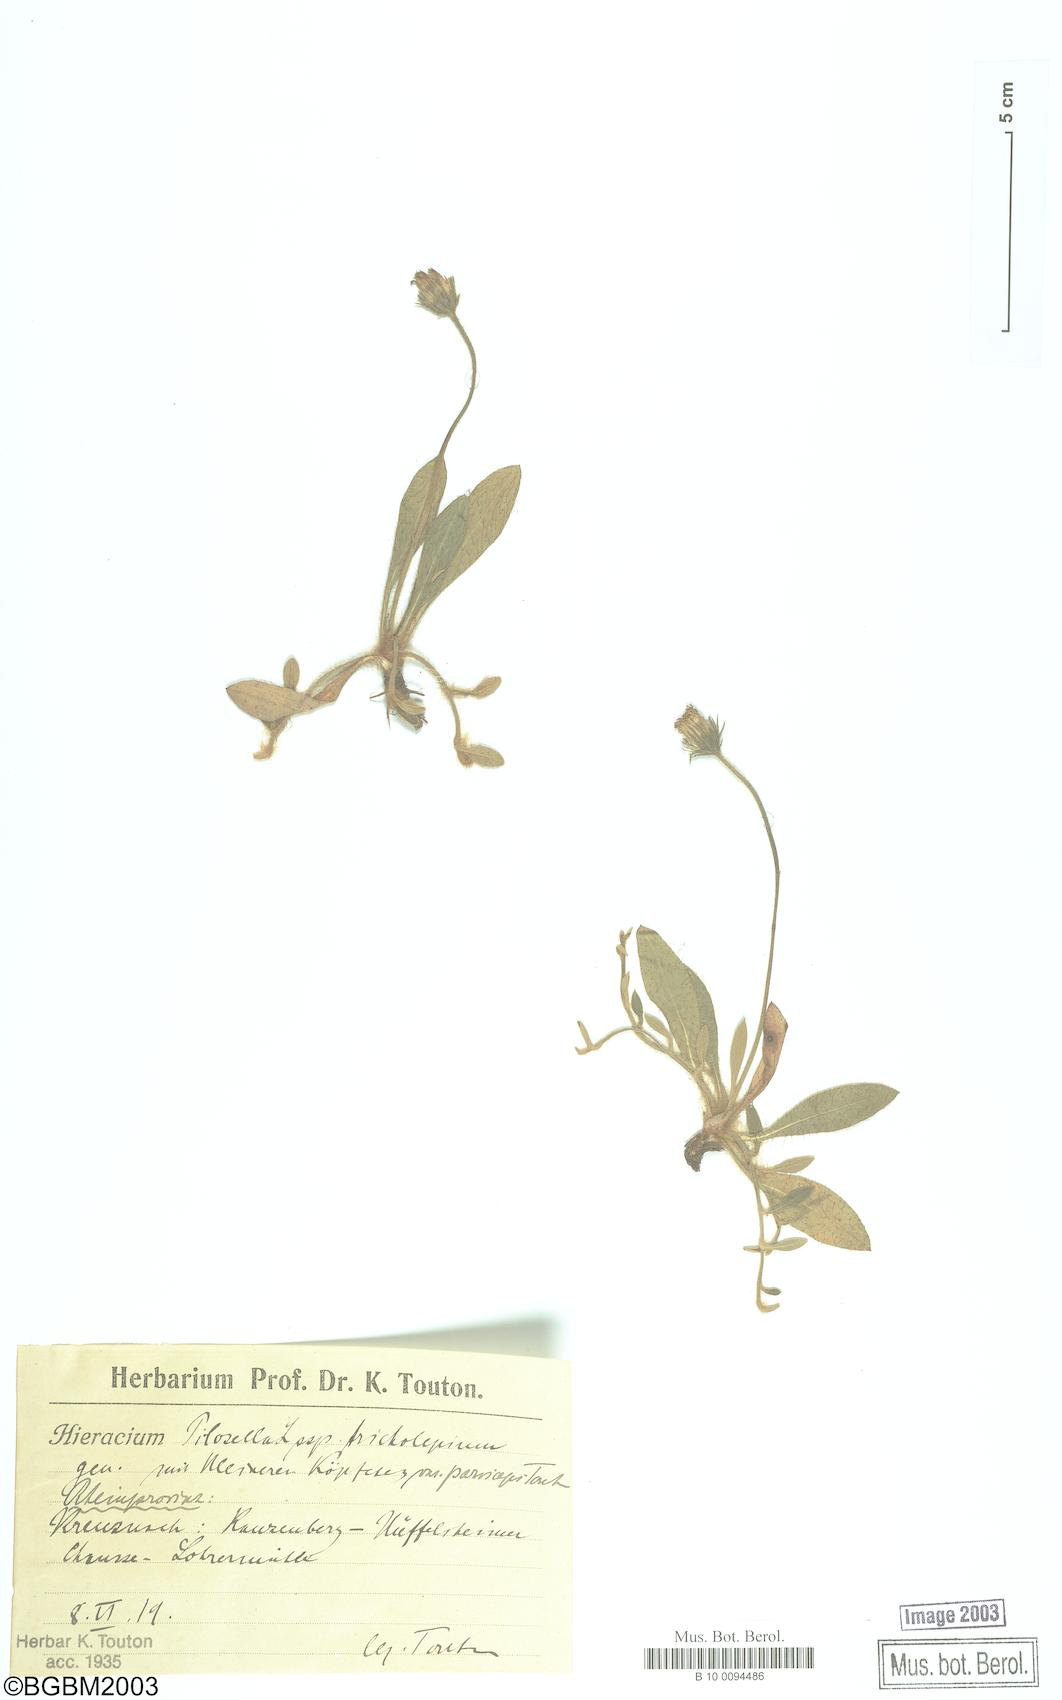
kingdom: Plantae
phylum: Tracheophyta
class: Magnoliopsida
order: Asterales
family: Asteraceae
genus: Pilosella
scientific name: Pilosella officinarum
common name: Mouse-ear hawkweed
